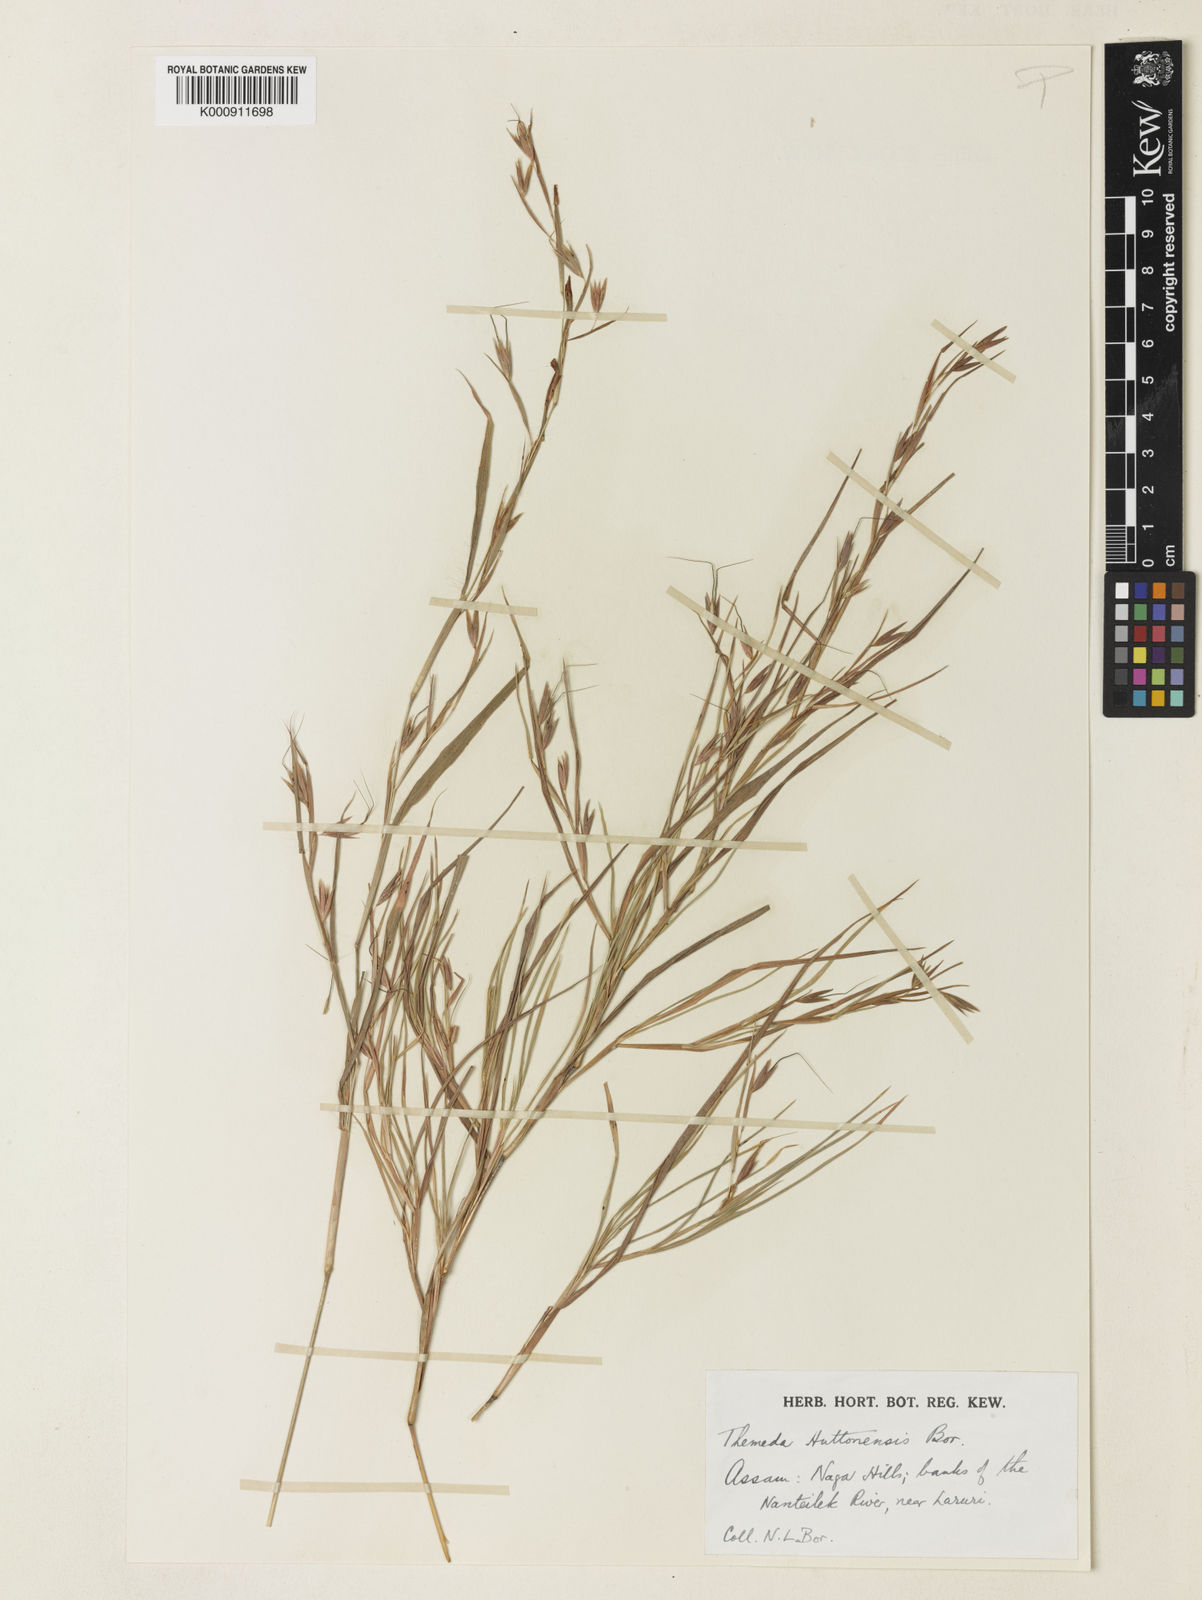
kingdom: Plantae
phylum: Tracheophyta
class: Liliopsida
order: Poales
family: Poaceae
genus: Themeda
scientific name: Themeda huttonensis
